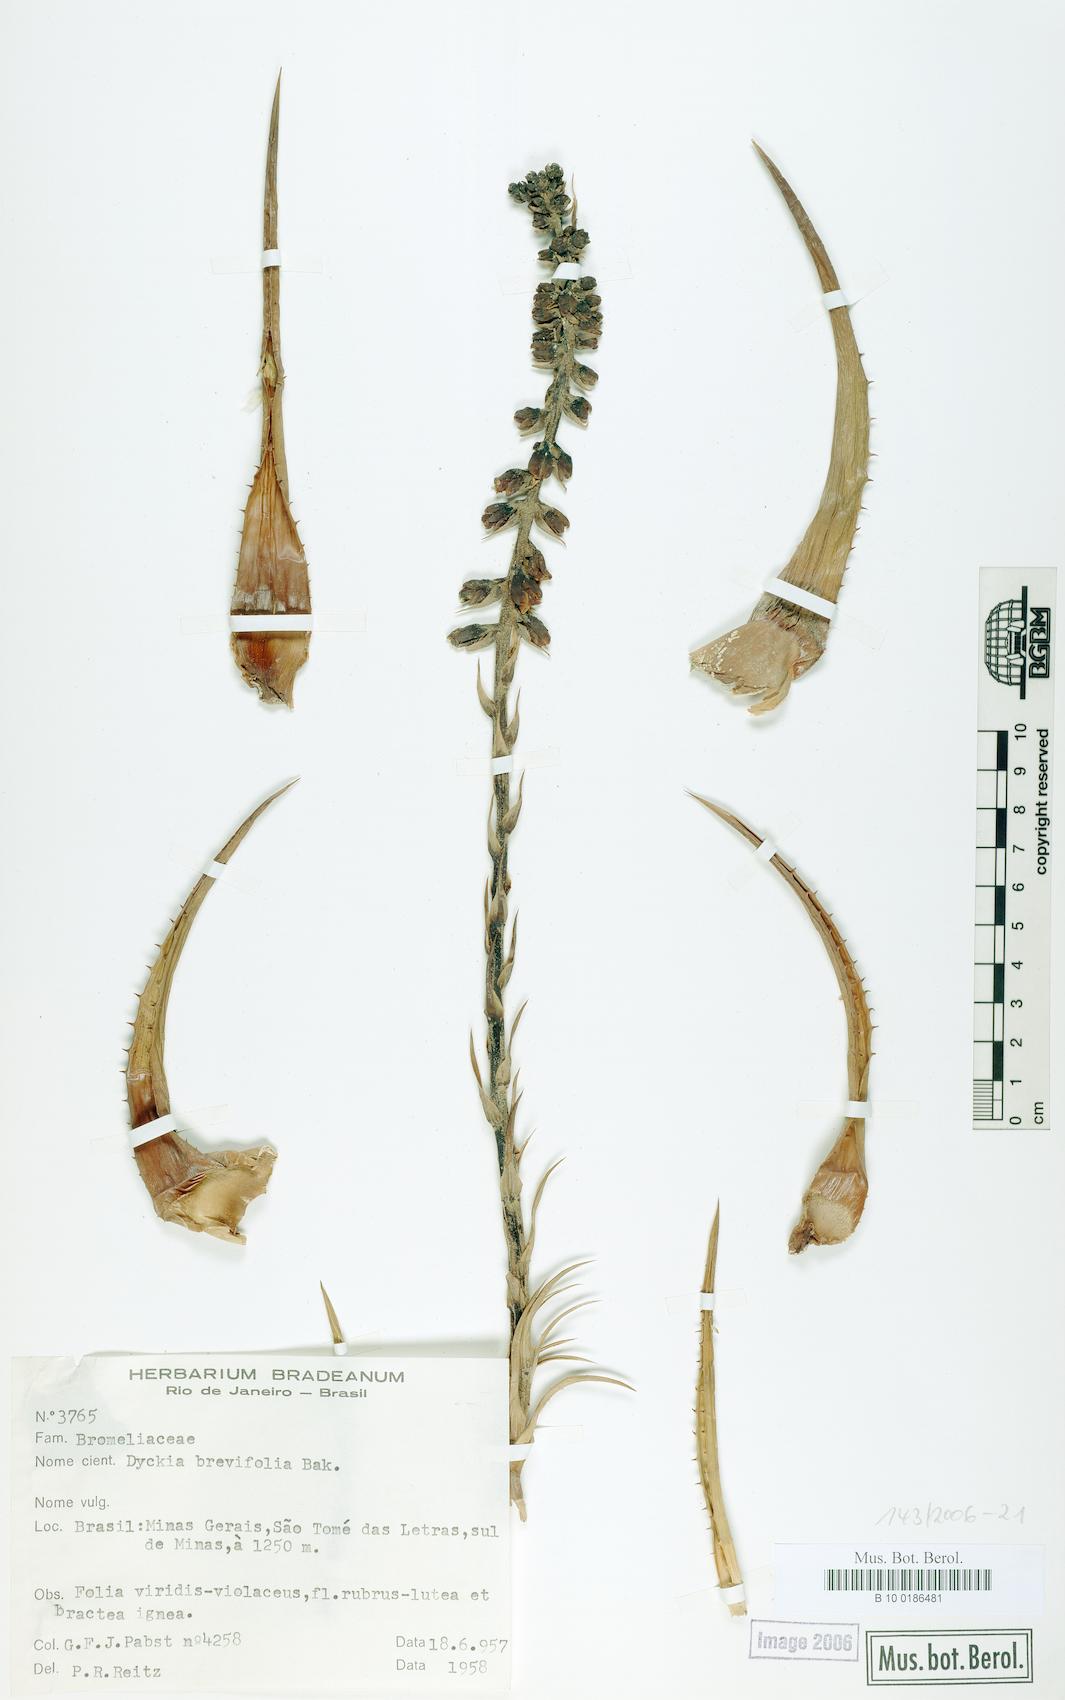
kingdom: Plantae
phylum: Tracheophyta
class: Liliopsida
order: Poales
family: Bromeliaceae
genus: Dyckia
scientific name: Dyckia brevifolia
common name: Sawblade
